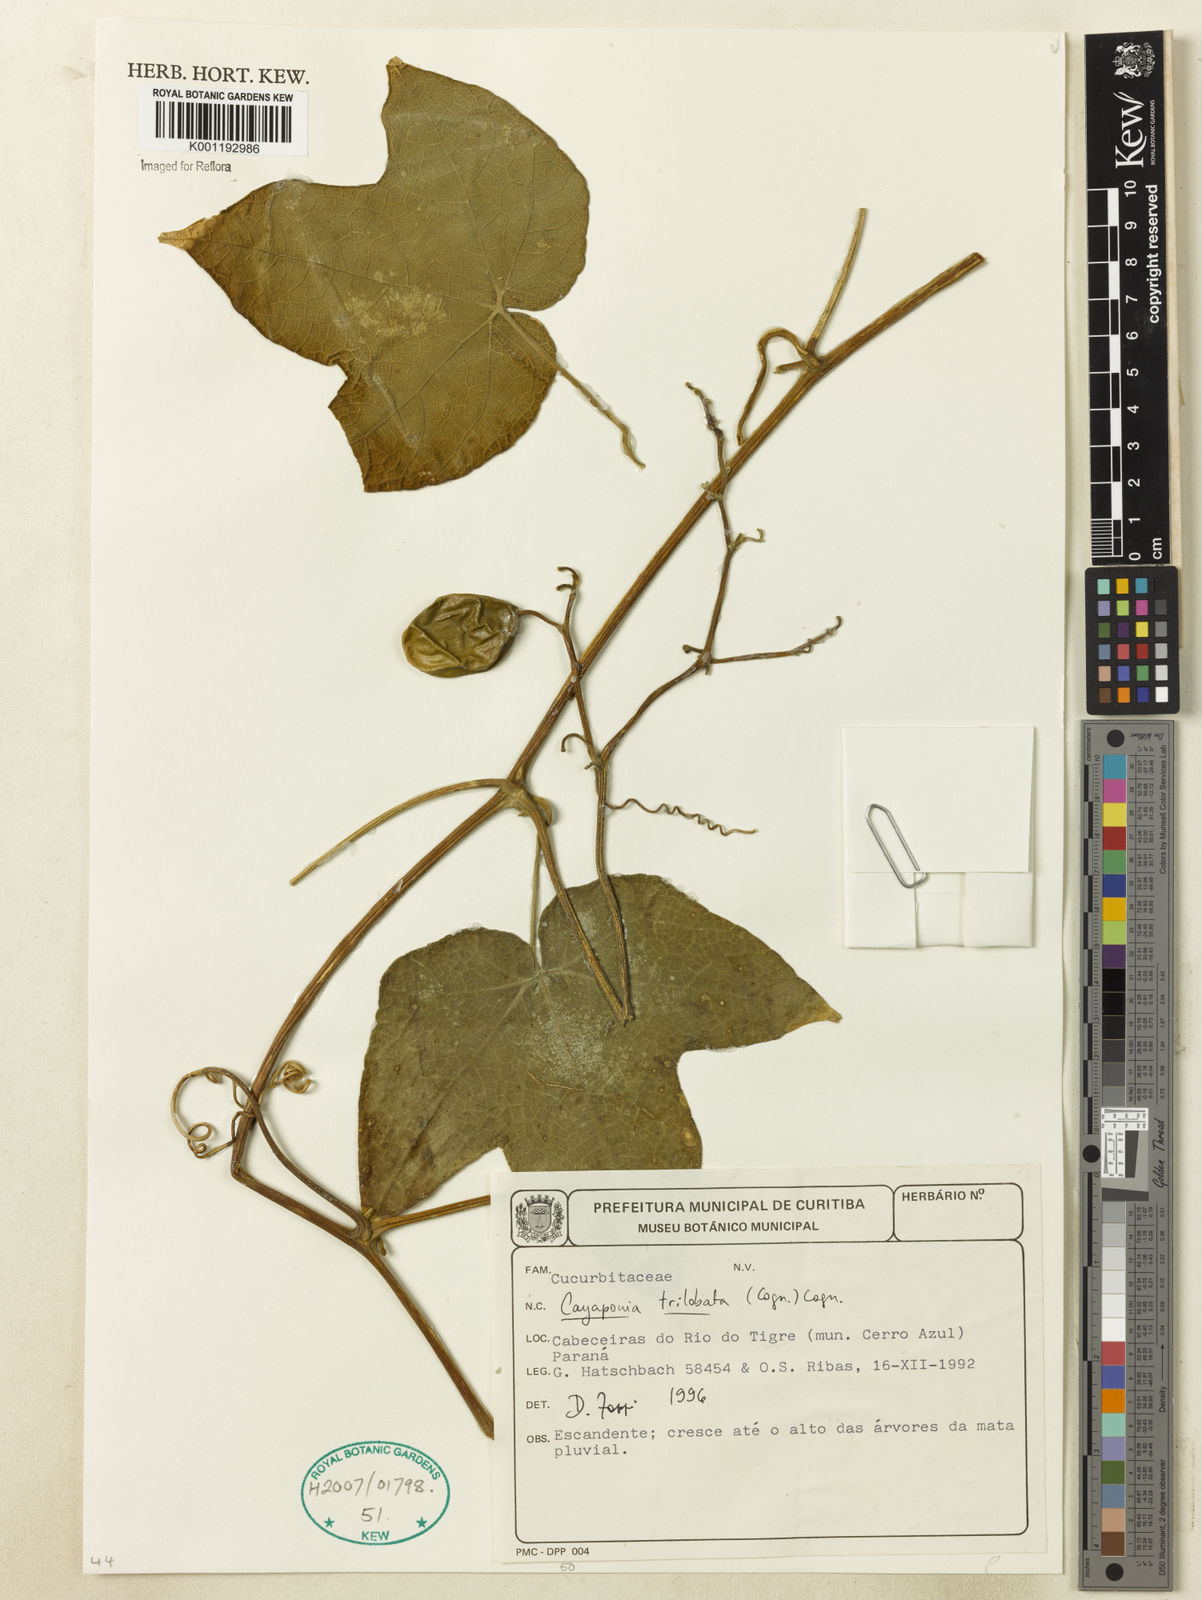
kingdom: Plantae
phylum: Tracheophyta
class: Magnoliopsida
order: Cucurbitales
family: Cucurbitaceae
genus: Cayaponia
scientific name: Cayaponia trilobata
